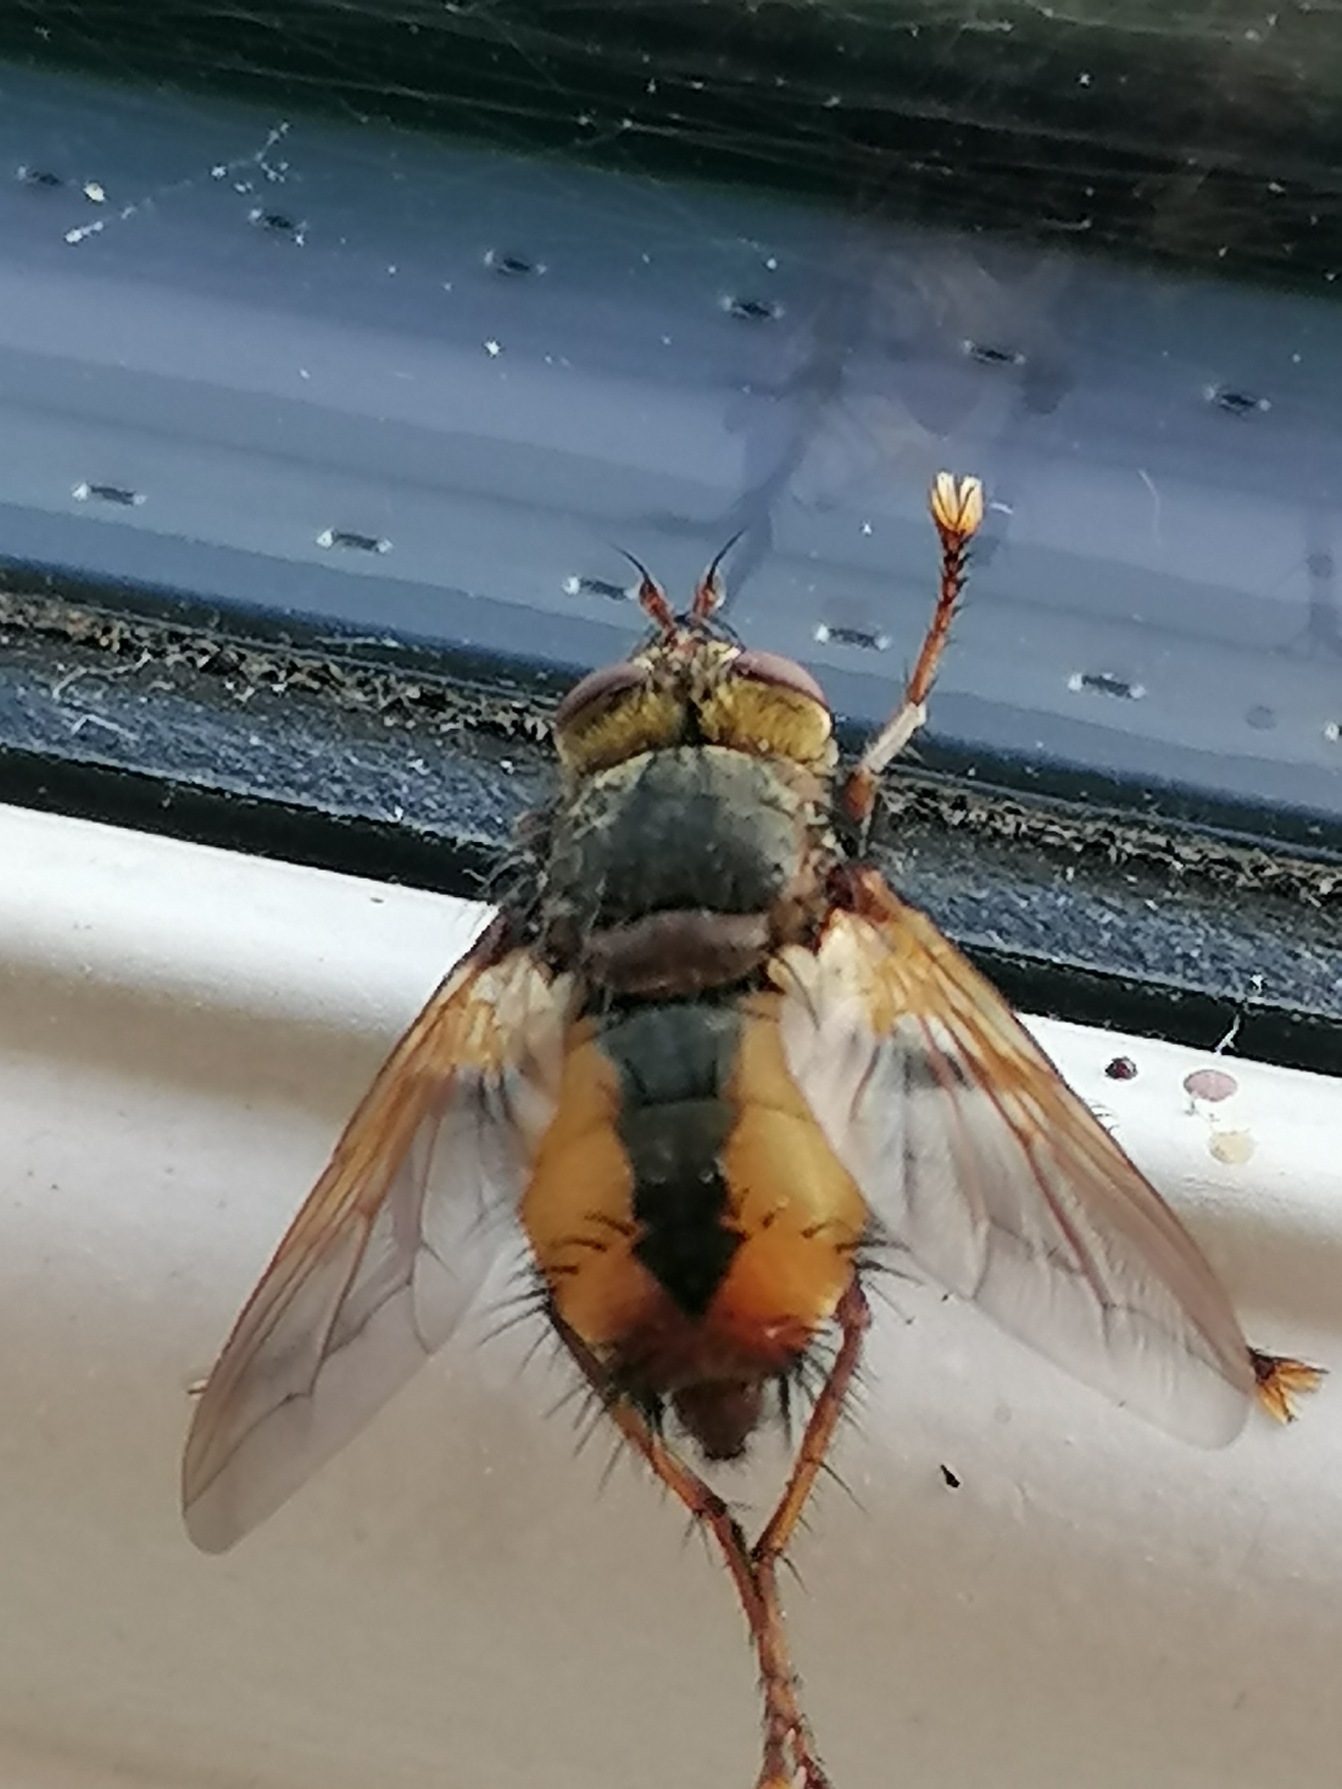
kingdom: Animalia
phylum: Arthropoda
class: Insecta
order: Diptera
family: Tachinidae
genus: Tachina
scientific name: Tachina fera
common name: Mellemfluen oskar
